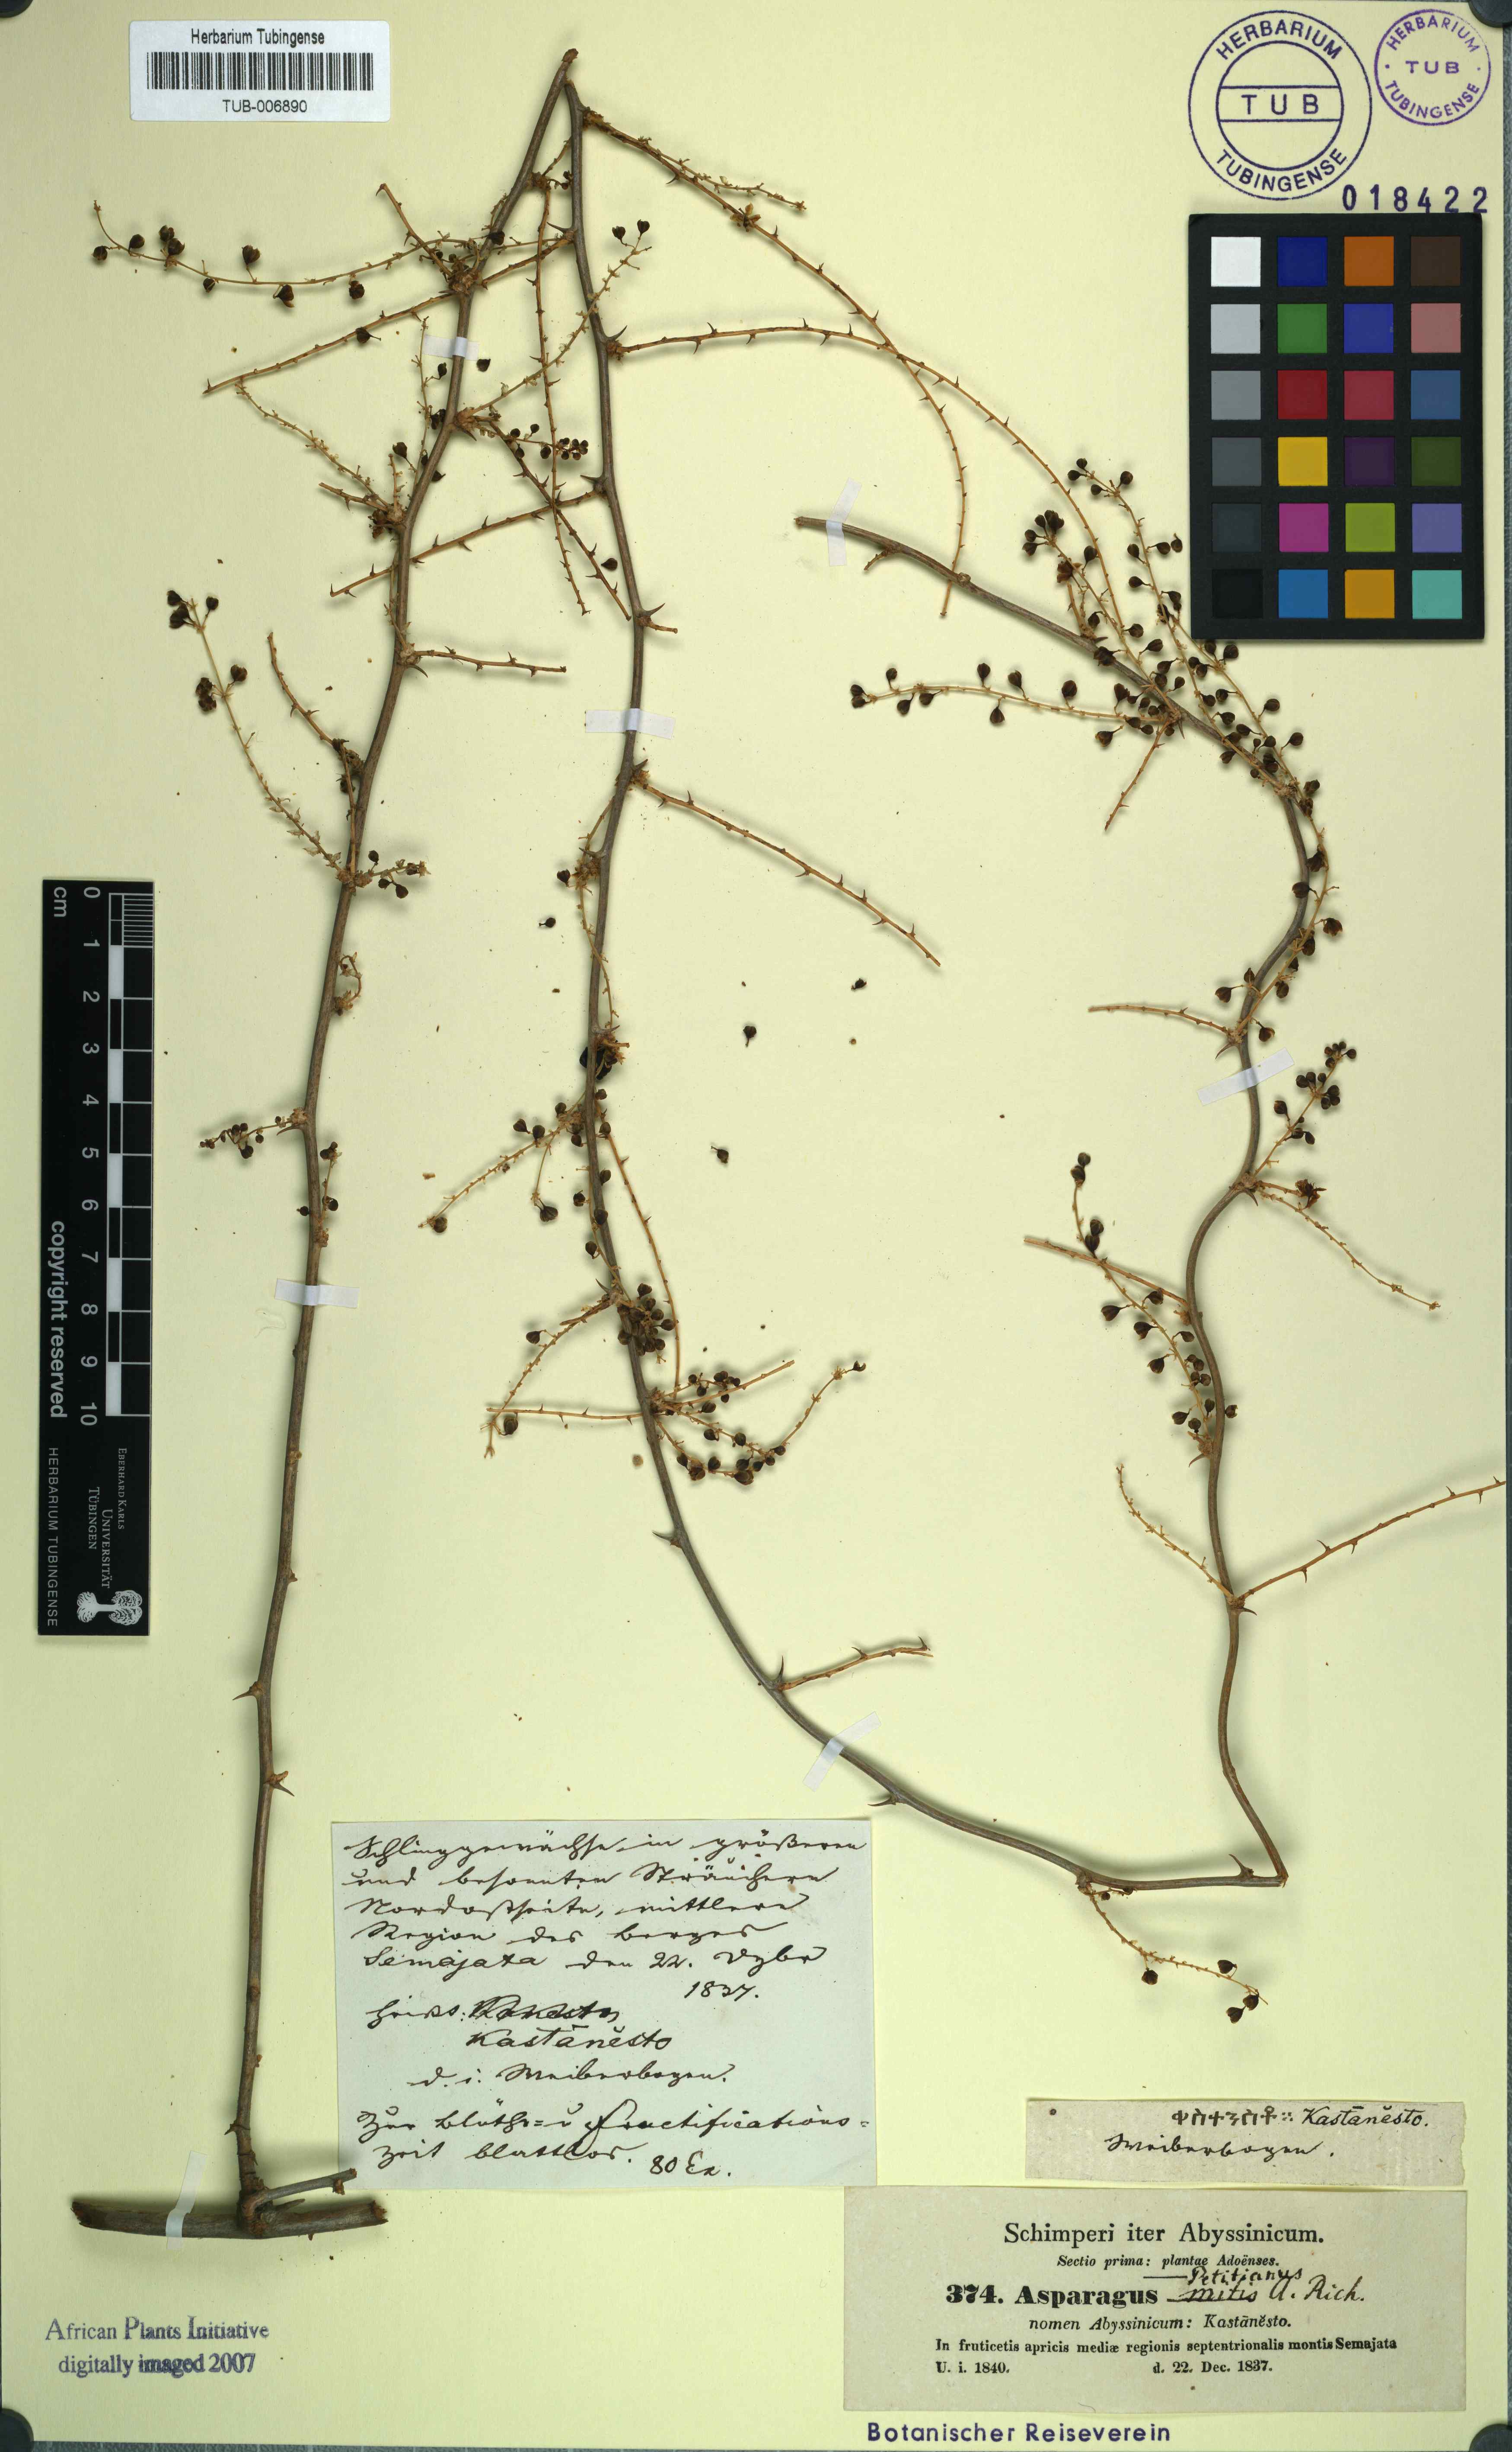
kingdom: Plantae
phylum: Tracheophyta
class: Liliopsida
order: Asparagales
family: Asparagaceae
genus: Asparagus
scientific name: Asparagus racemosus
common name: Asparagus-fern
